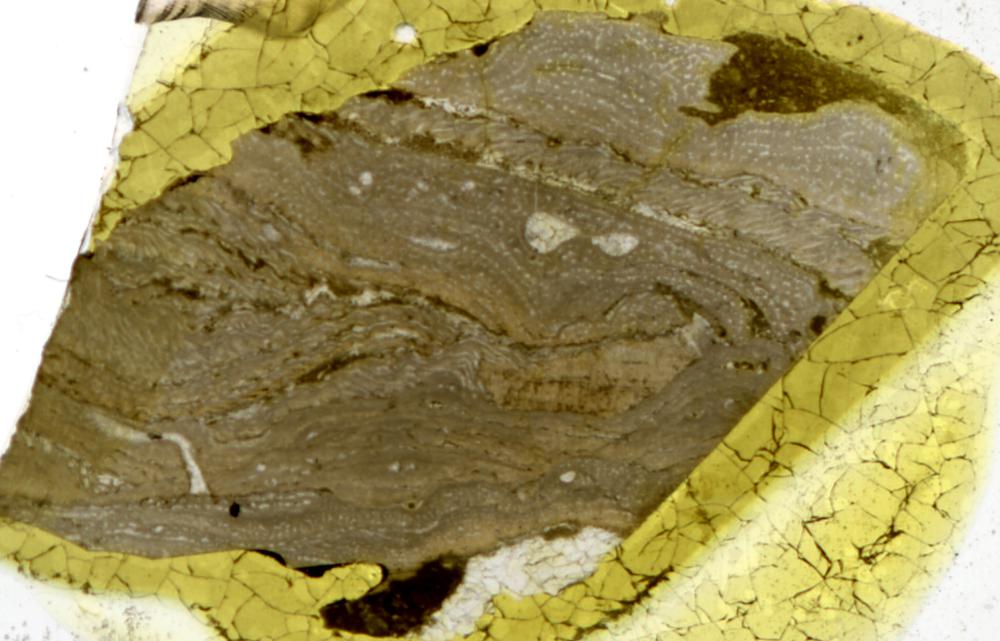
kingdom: Animalia
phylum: Porifera
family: Stromatoporidae
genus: Stromatopora
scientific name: Stromatopora
